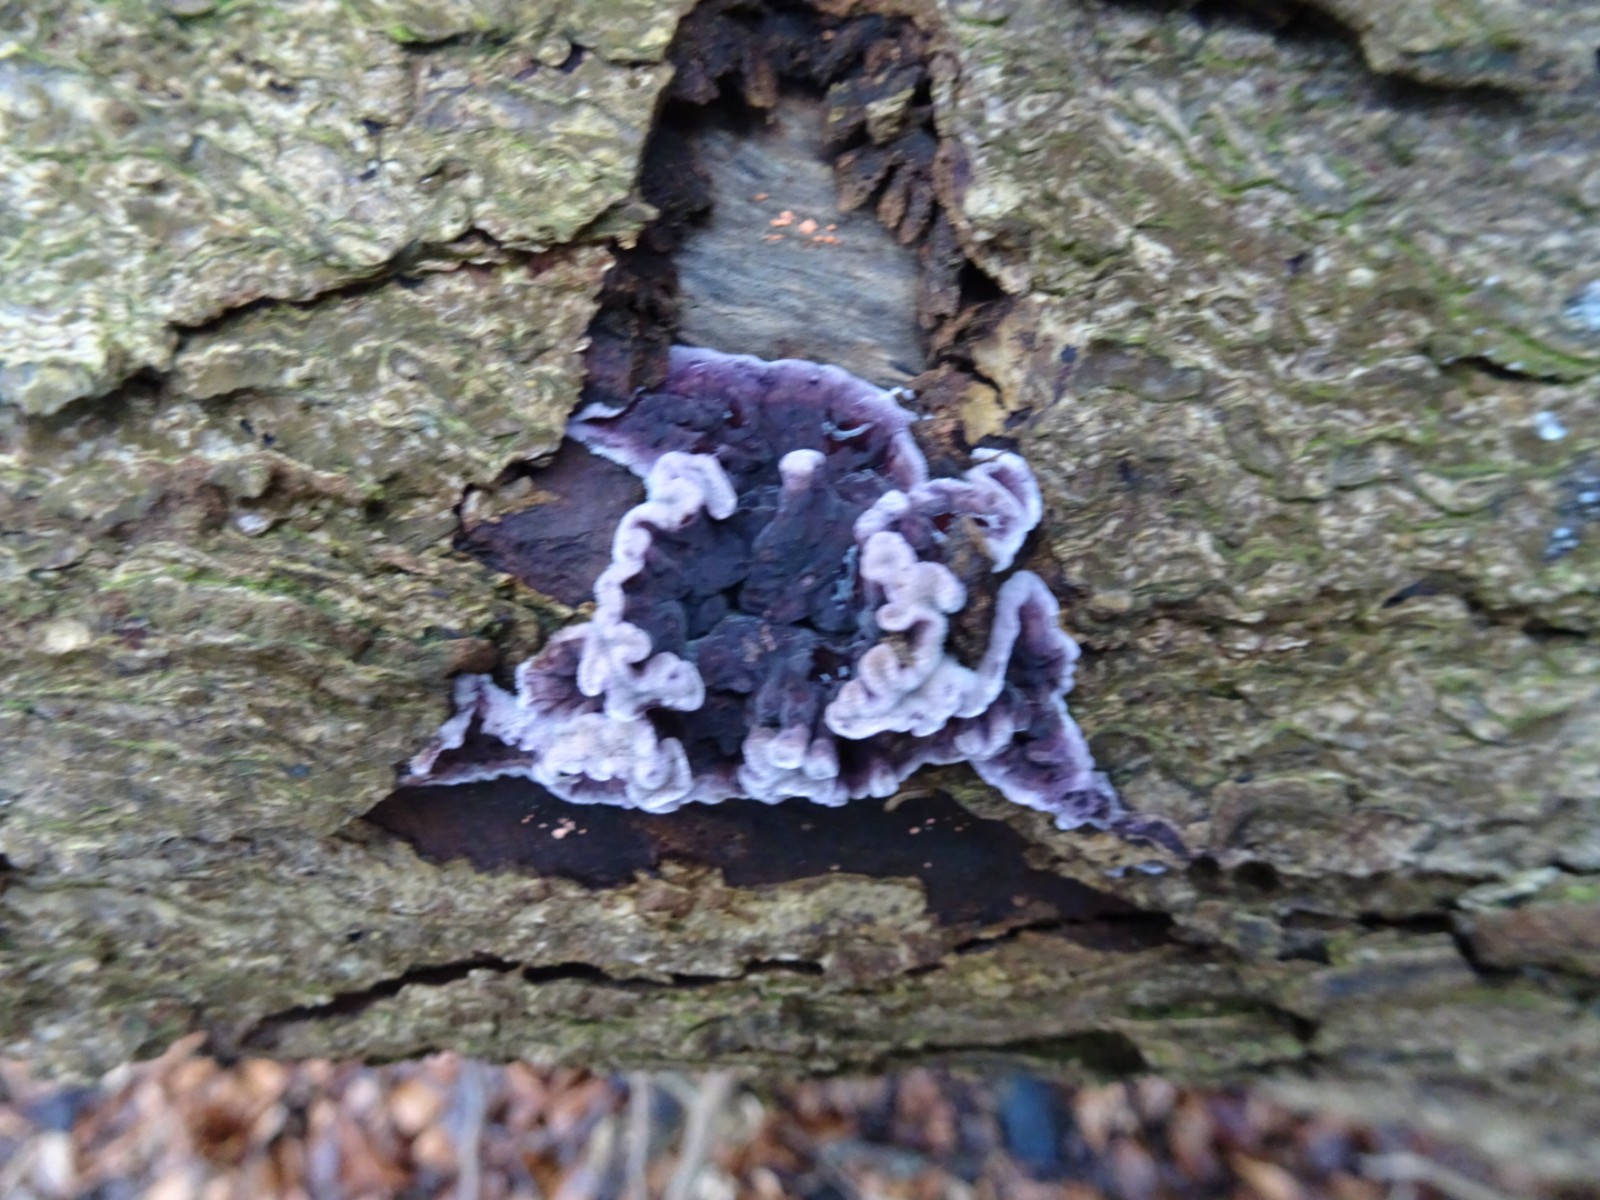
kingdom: Fungi
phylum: Basidiomycota
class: Agaricomycetes
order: Agaricales
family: Cyphellaceae
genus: Chondrostereum
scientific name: Chondrostereum purpureum
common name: purpurlædersvamp
